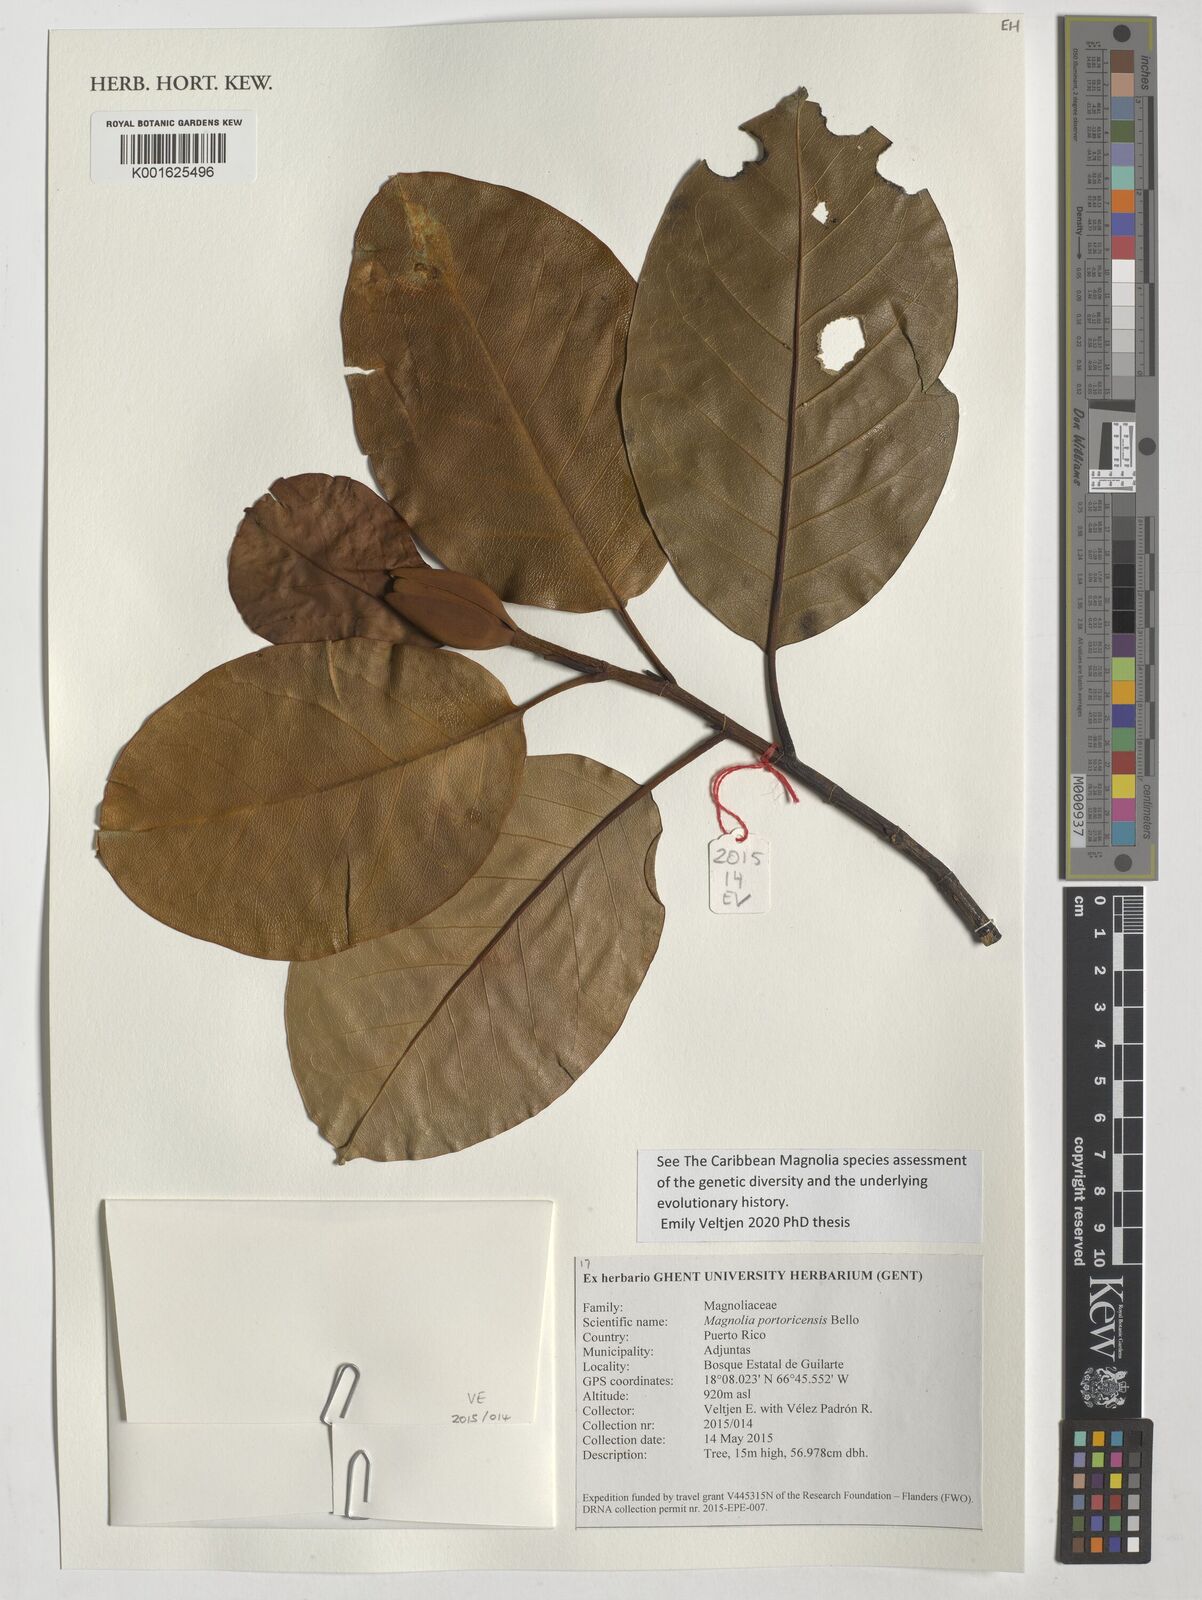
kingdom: Plantae
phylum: Tracheophyta
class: Magnoliopsida
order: Magnoliales
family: Magnoliaceae
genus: Magnolia
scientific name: Magnolia portoricensis
